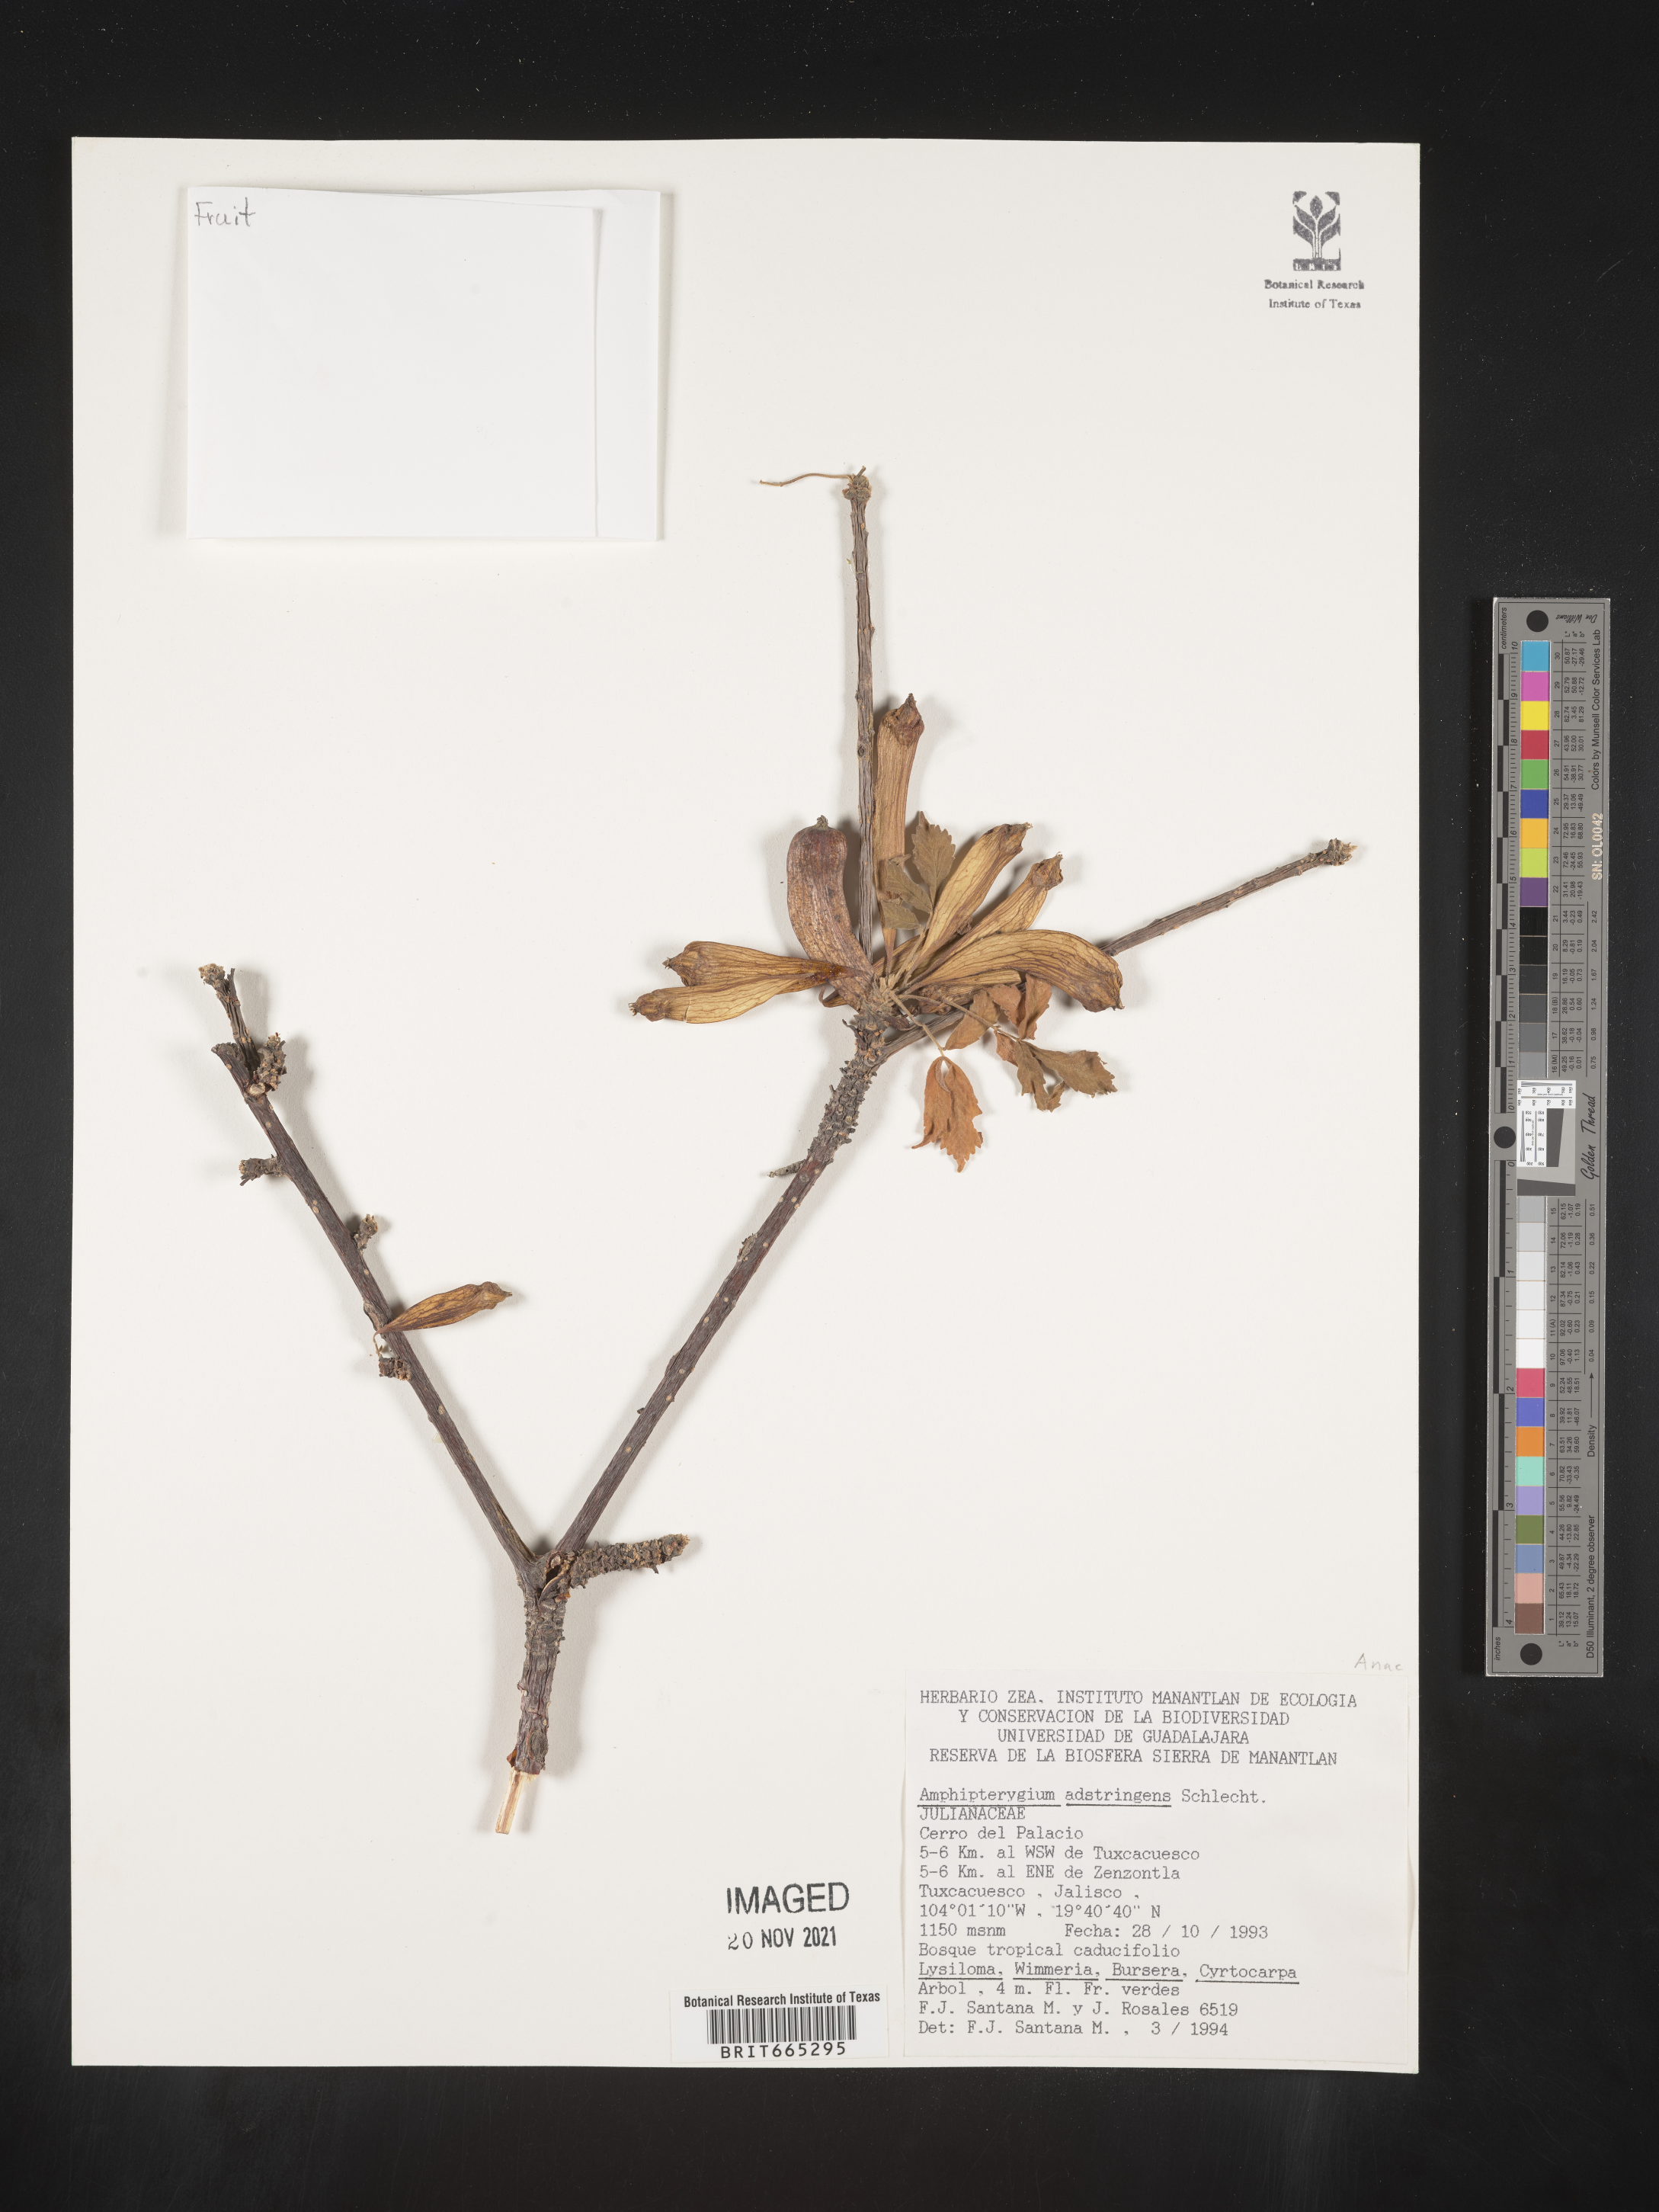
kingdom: Plantae
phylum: Tracheophyta
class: Magnoliopsida
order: Sapindales
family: Anacardiaceae
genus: Amphipterygium
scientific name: Amphipterygium
